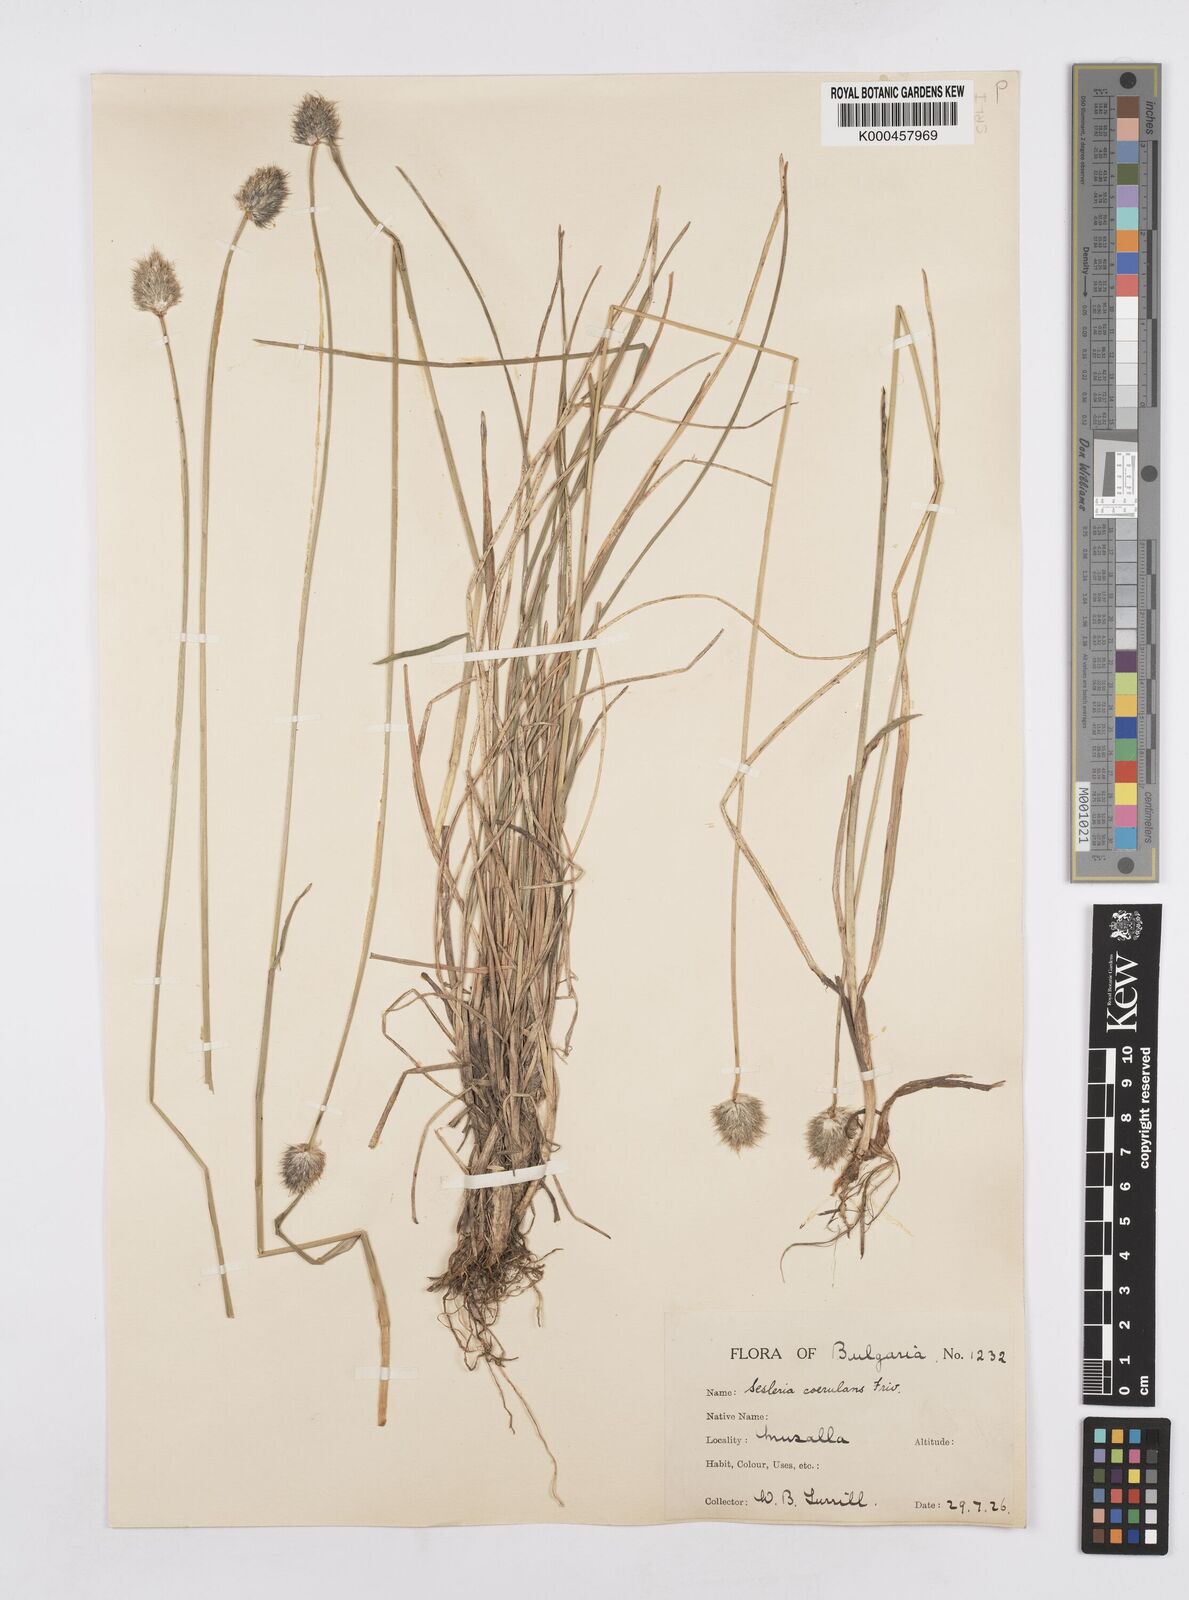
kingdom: Plantae
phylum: Tracheophyta
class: Liliopsida
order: Poales
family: Poaceae
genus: Sesleria
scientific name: Sesleria coerulans
